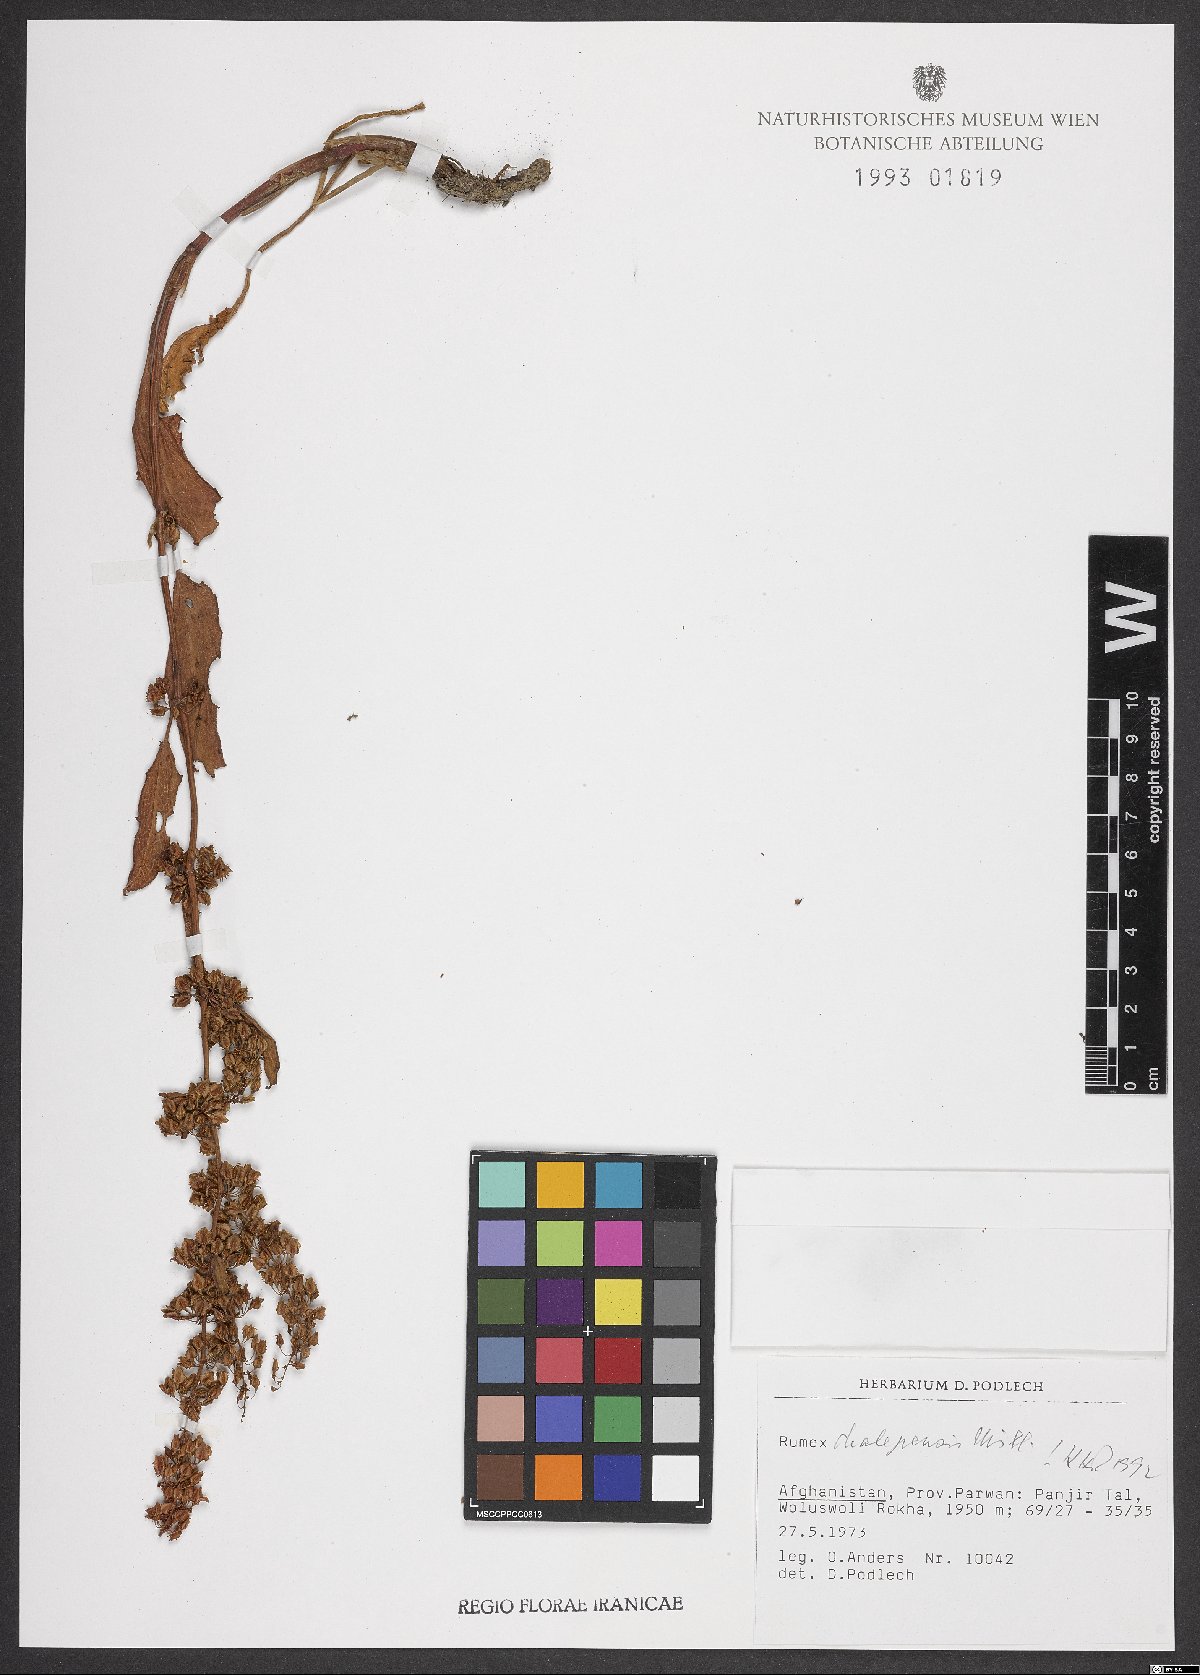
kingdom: Plantae
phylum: Tracheophyta
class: Magnoliopsida
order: Caryophyllales
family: Polygonaceae
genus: Rumex
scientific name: Rumex chalepensis
